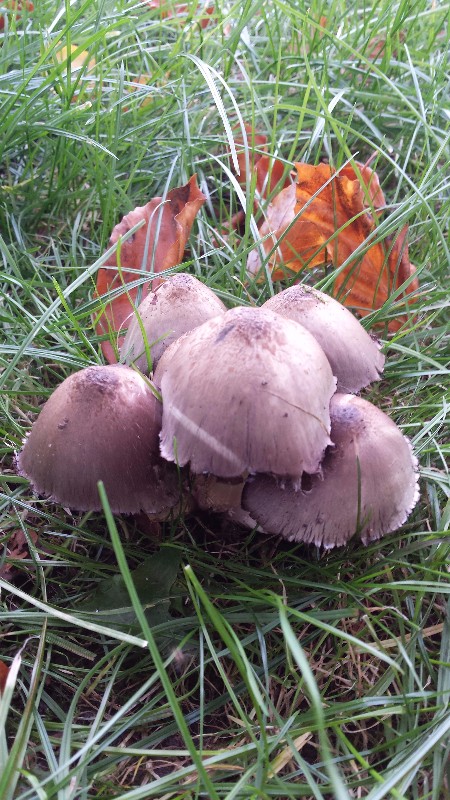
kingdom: Fungi
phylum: Basidiomycota
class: Agaricomycetes
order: Agaricales
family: Psathyrellaceae
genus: Coprinopsis
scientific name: Coprinopsis atramentaria
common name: almindelig blækhat
